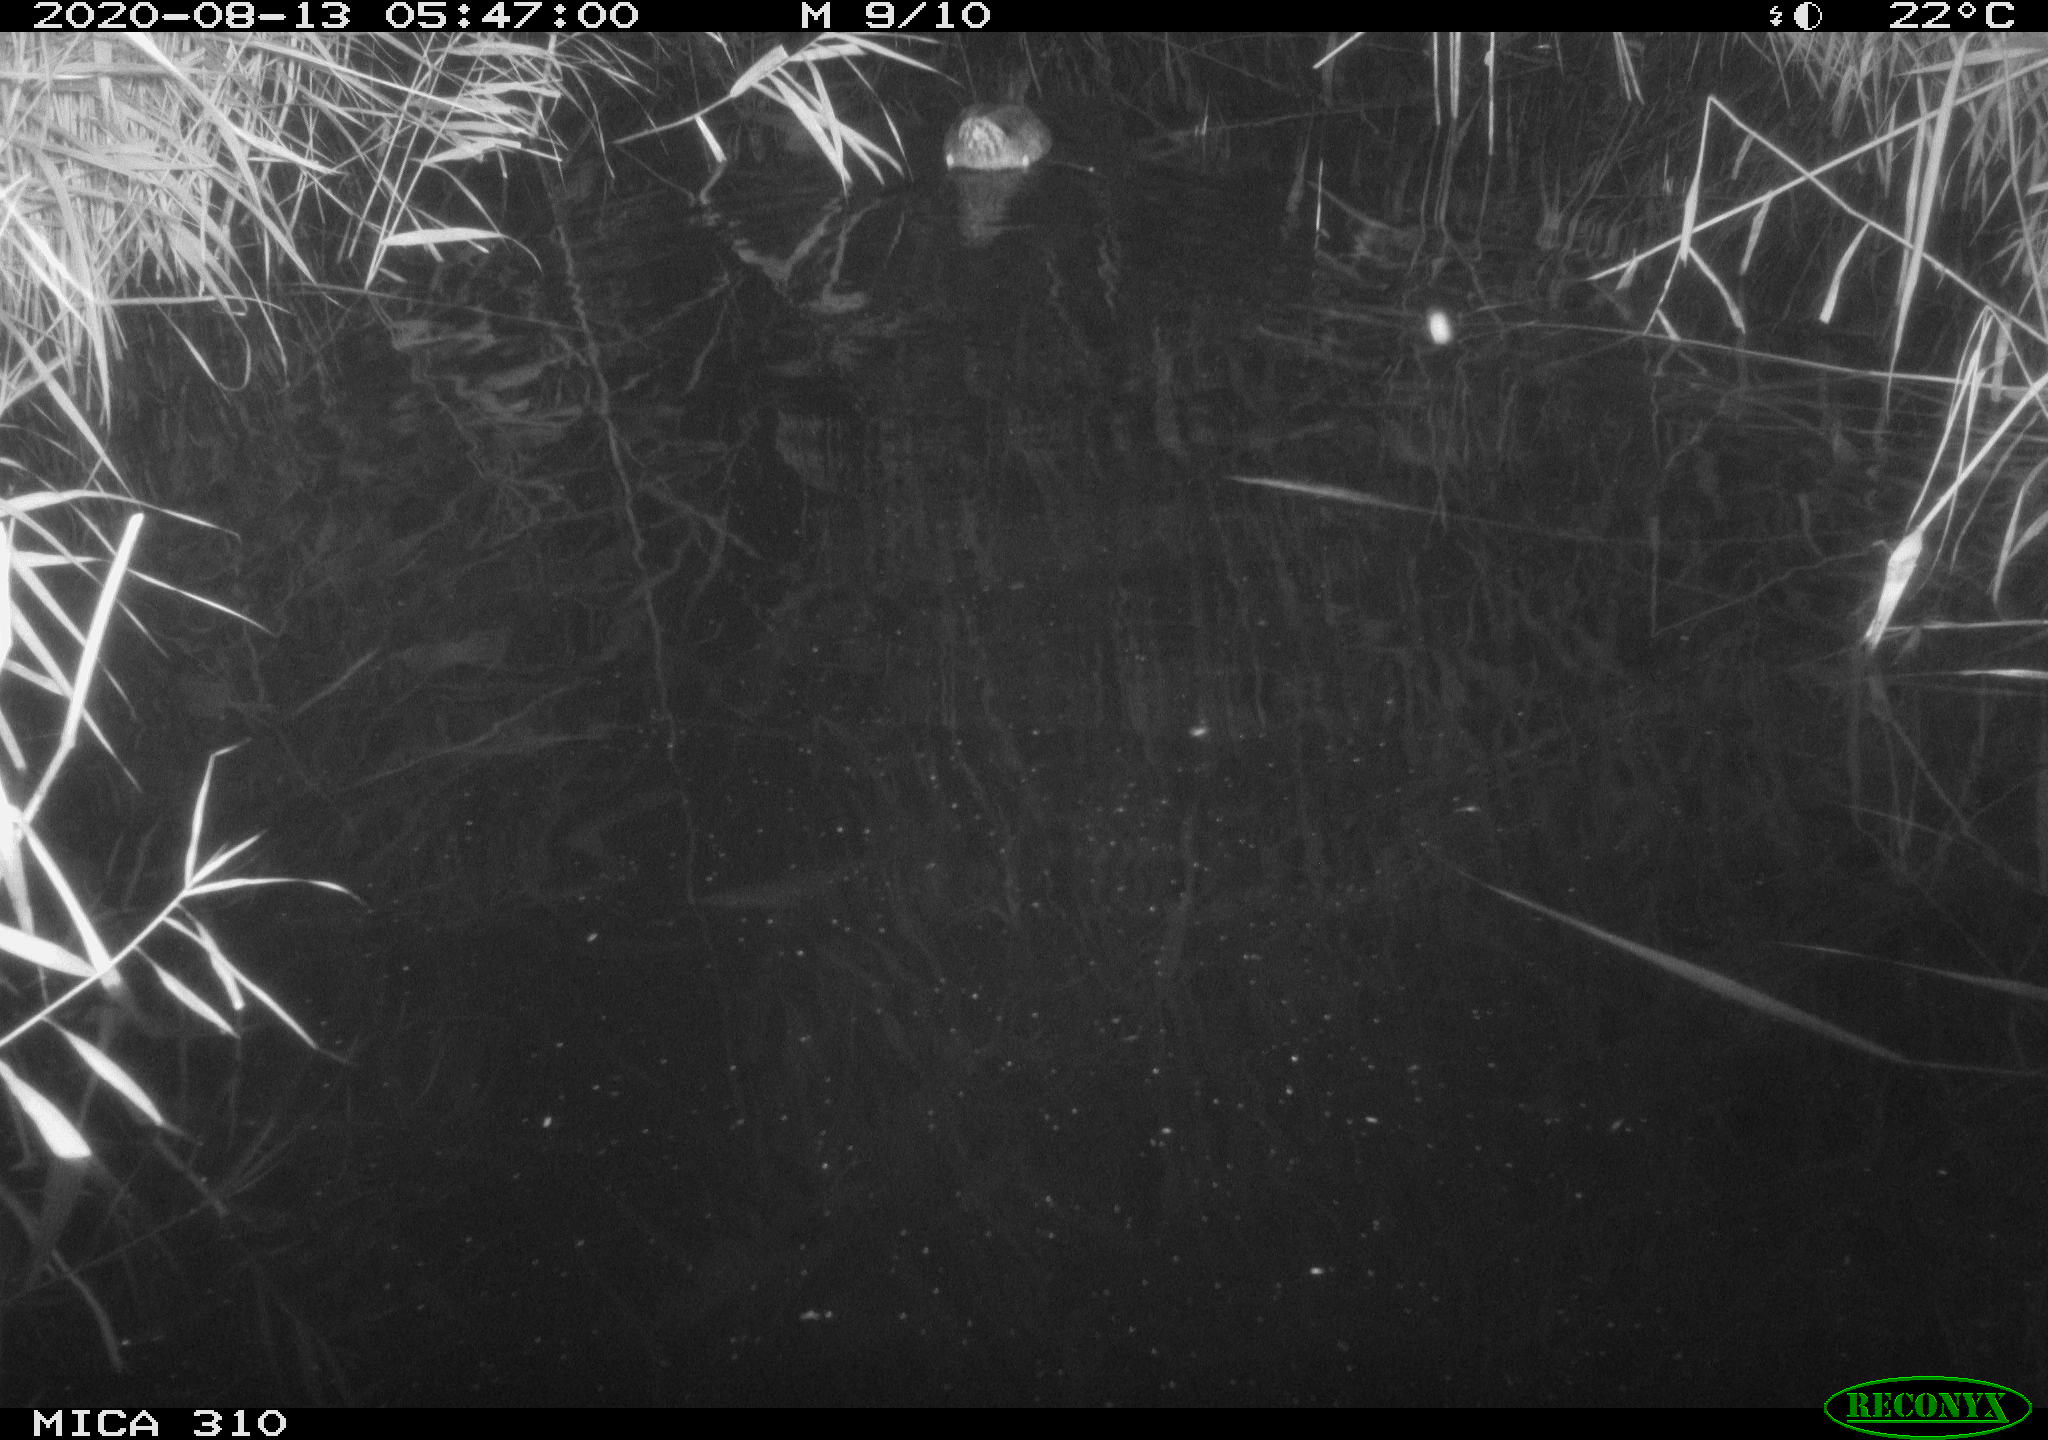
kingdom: Animalia
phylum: Chordata
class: Aves
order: Anseriformes
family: Anatidae
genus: Anas
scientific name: Anas platyrhynchos
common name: Mallard
